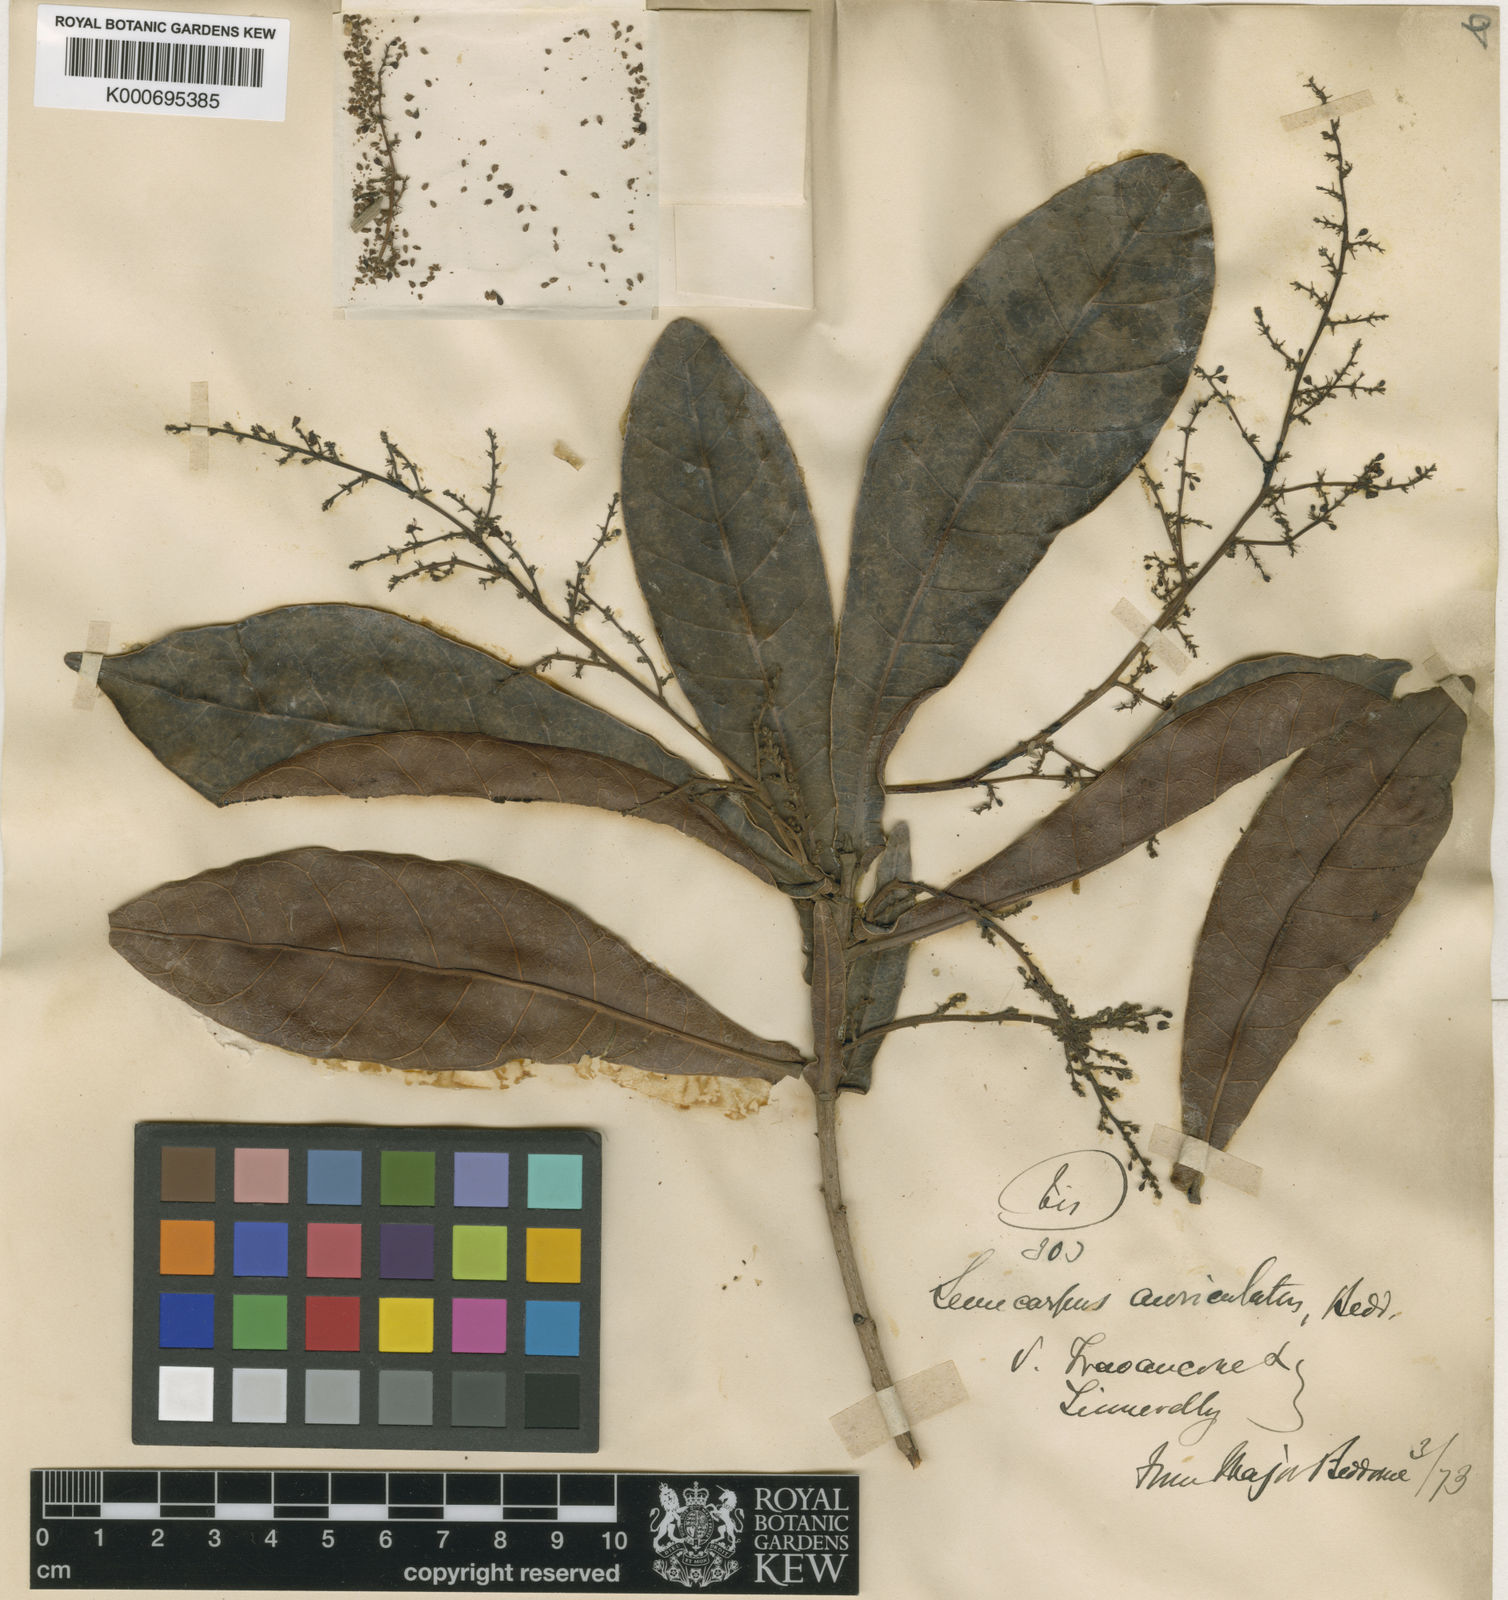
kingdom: Plantae
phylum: Tracheophyta
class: Magnoliopsida
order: Sapindales
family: Anacardiaceae
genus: Semecarpus
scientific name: Semecarpus auriculatus
